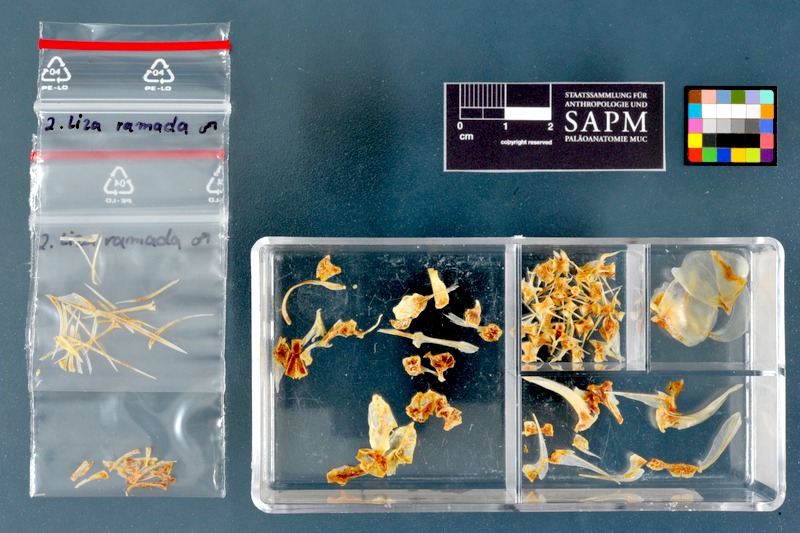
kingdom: Animalia
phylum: Chordata
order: Mugiliformes
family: Mugilidae
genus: Chelon
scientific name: Chelon ramada
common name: Thinlip grey mullet
